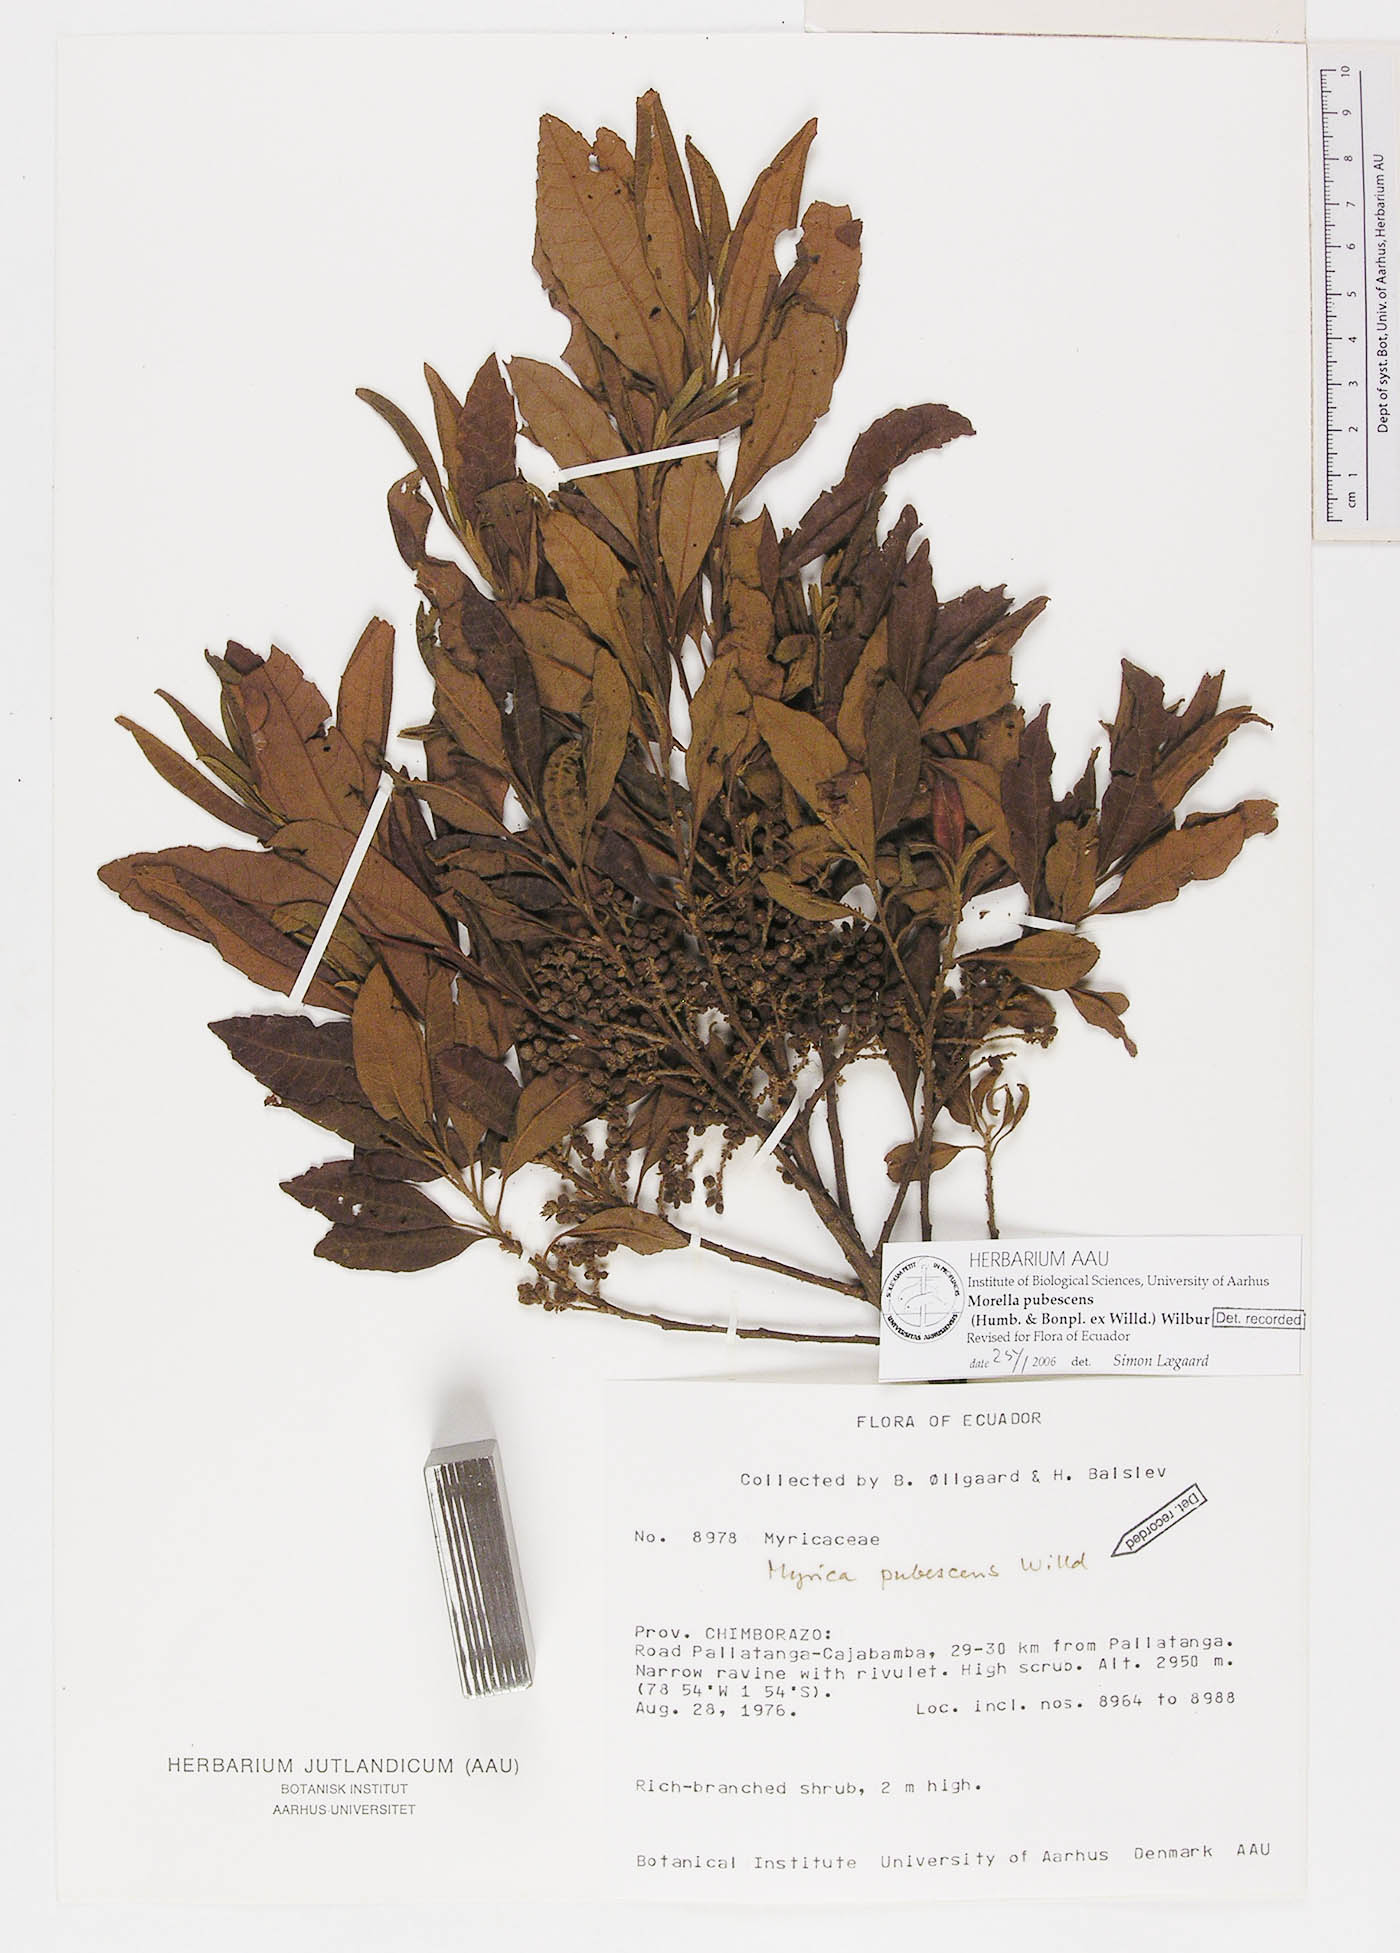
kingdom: Plantae
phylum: Tracheophyta
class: Magnoliopsida
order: Fagales
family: Myricaceae
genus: Morella
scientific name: Morella pubescens
